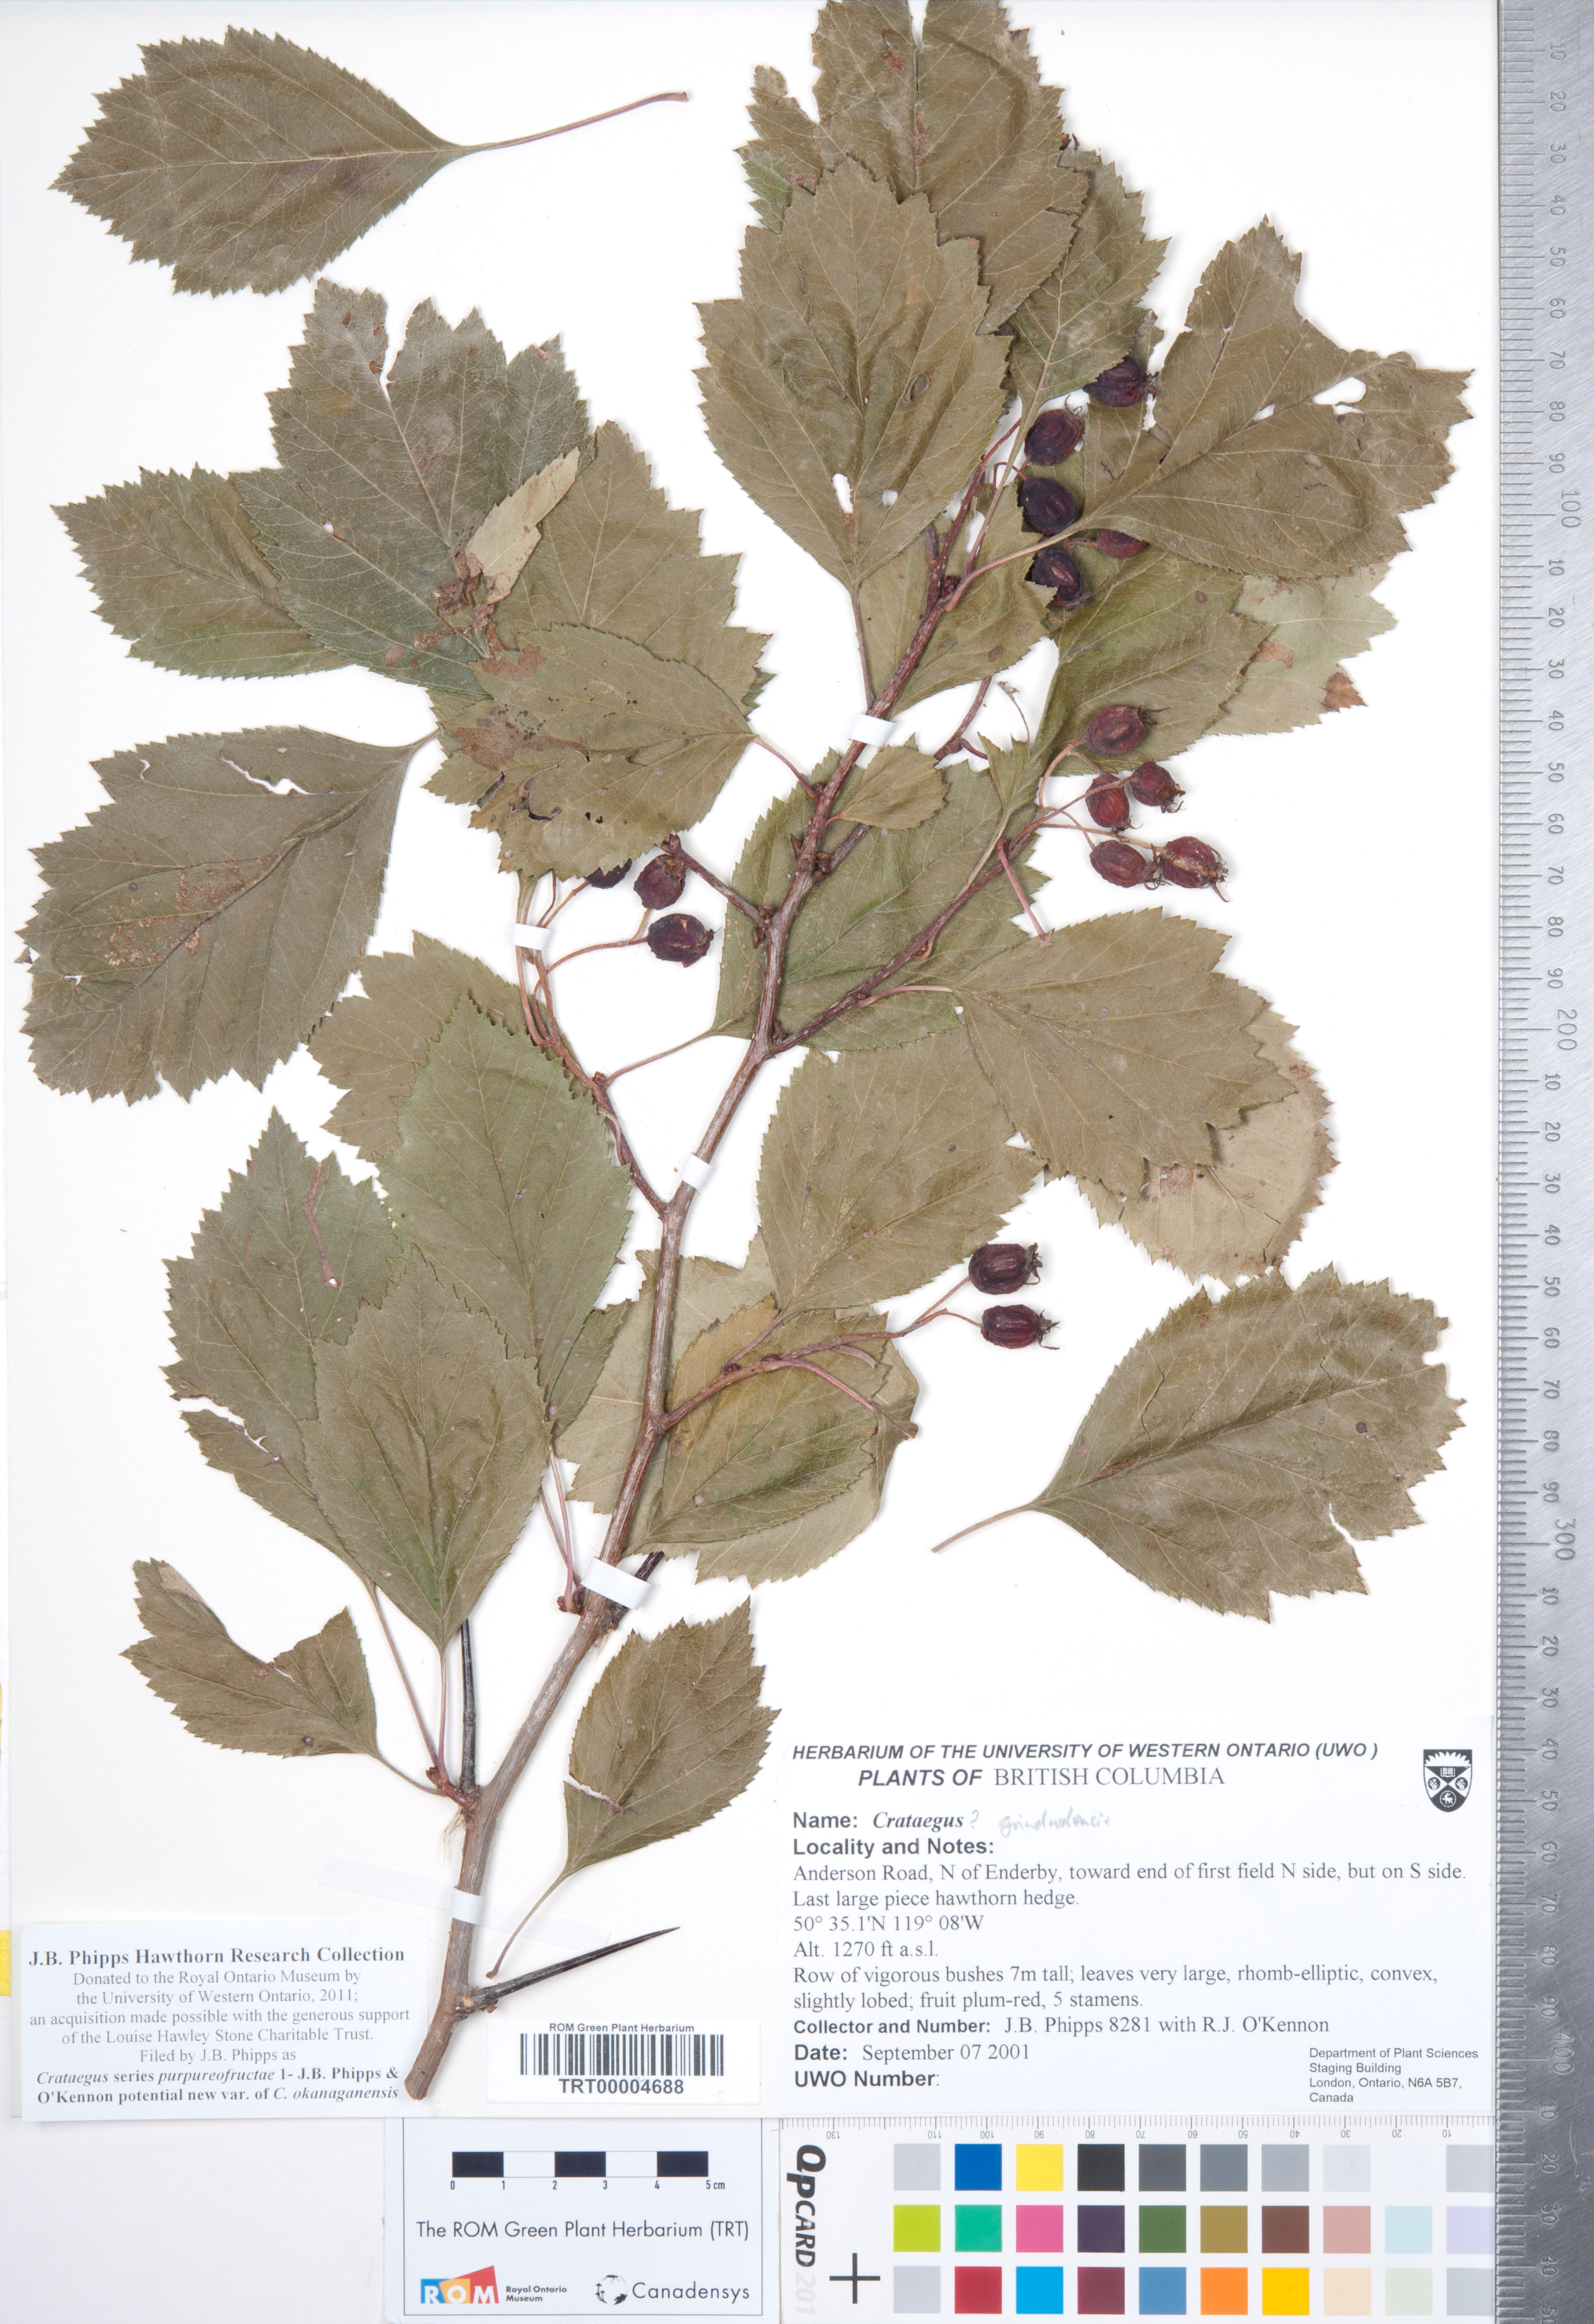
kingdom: Plantae
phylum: Tracheophyta
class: Magnoliopsida
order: Rosales
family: Rosaceae
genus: Crataegus
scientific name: Crataegus okanaganensis
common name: Okanagan valley hawthorn
